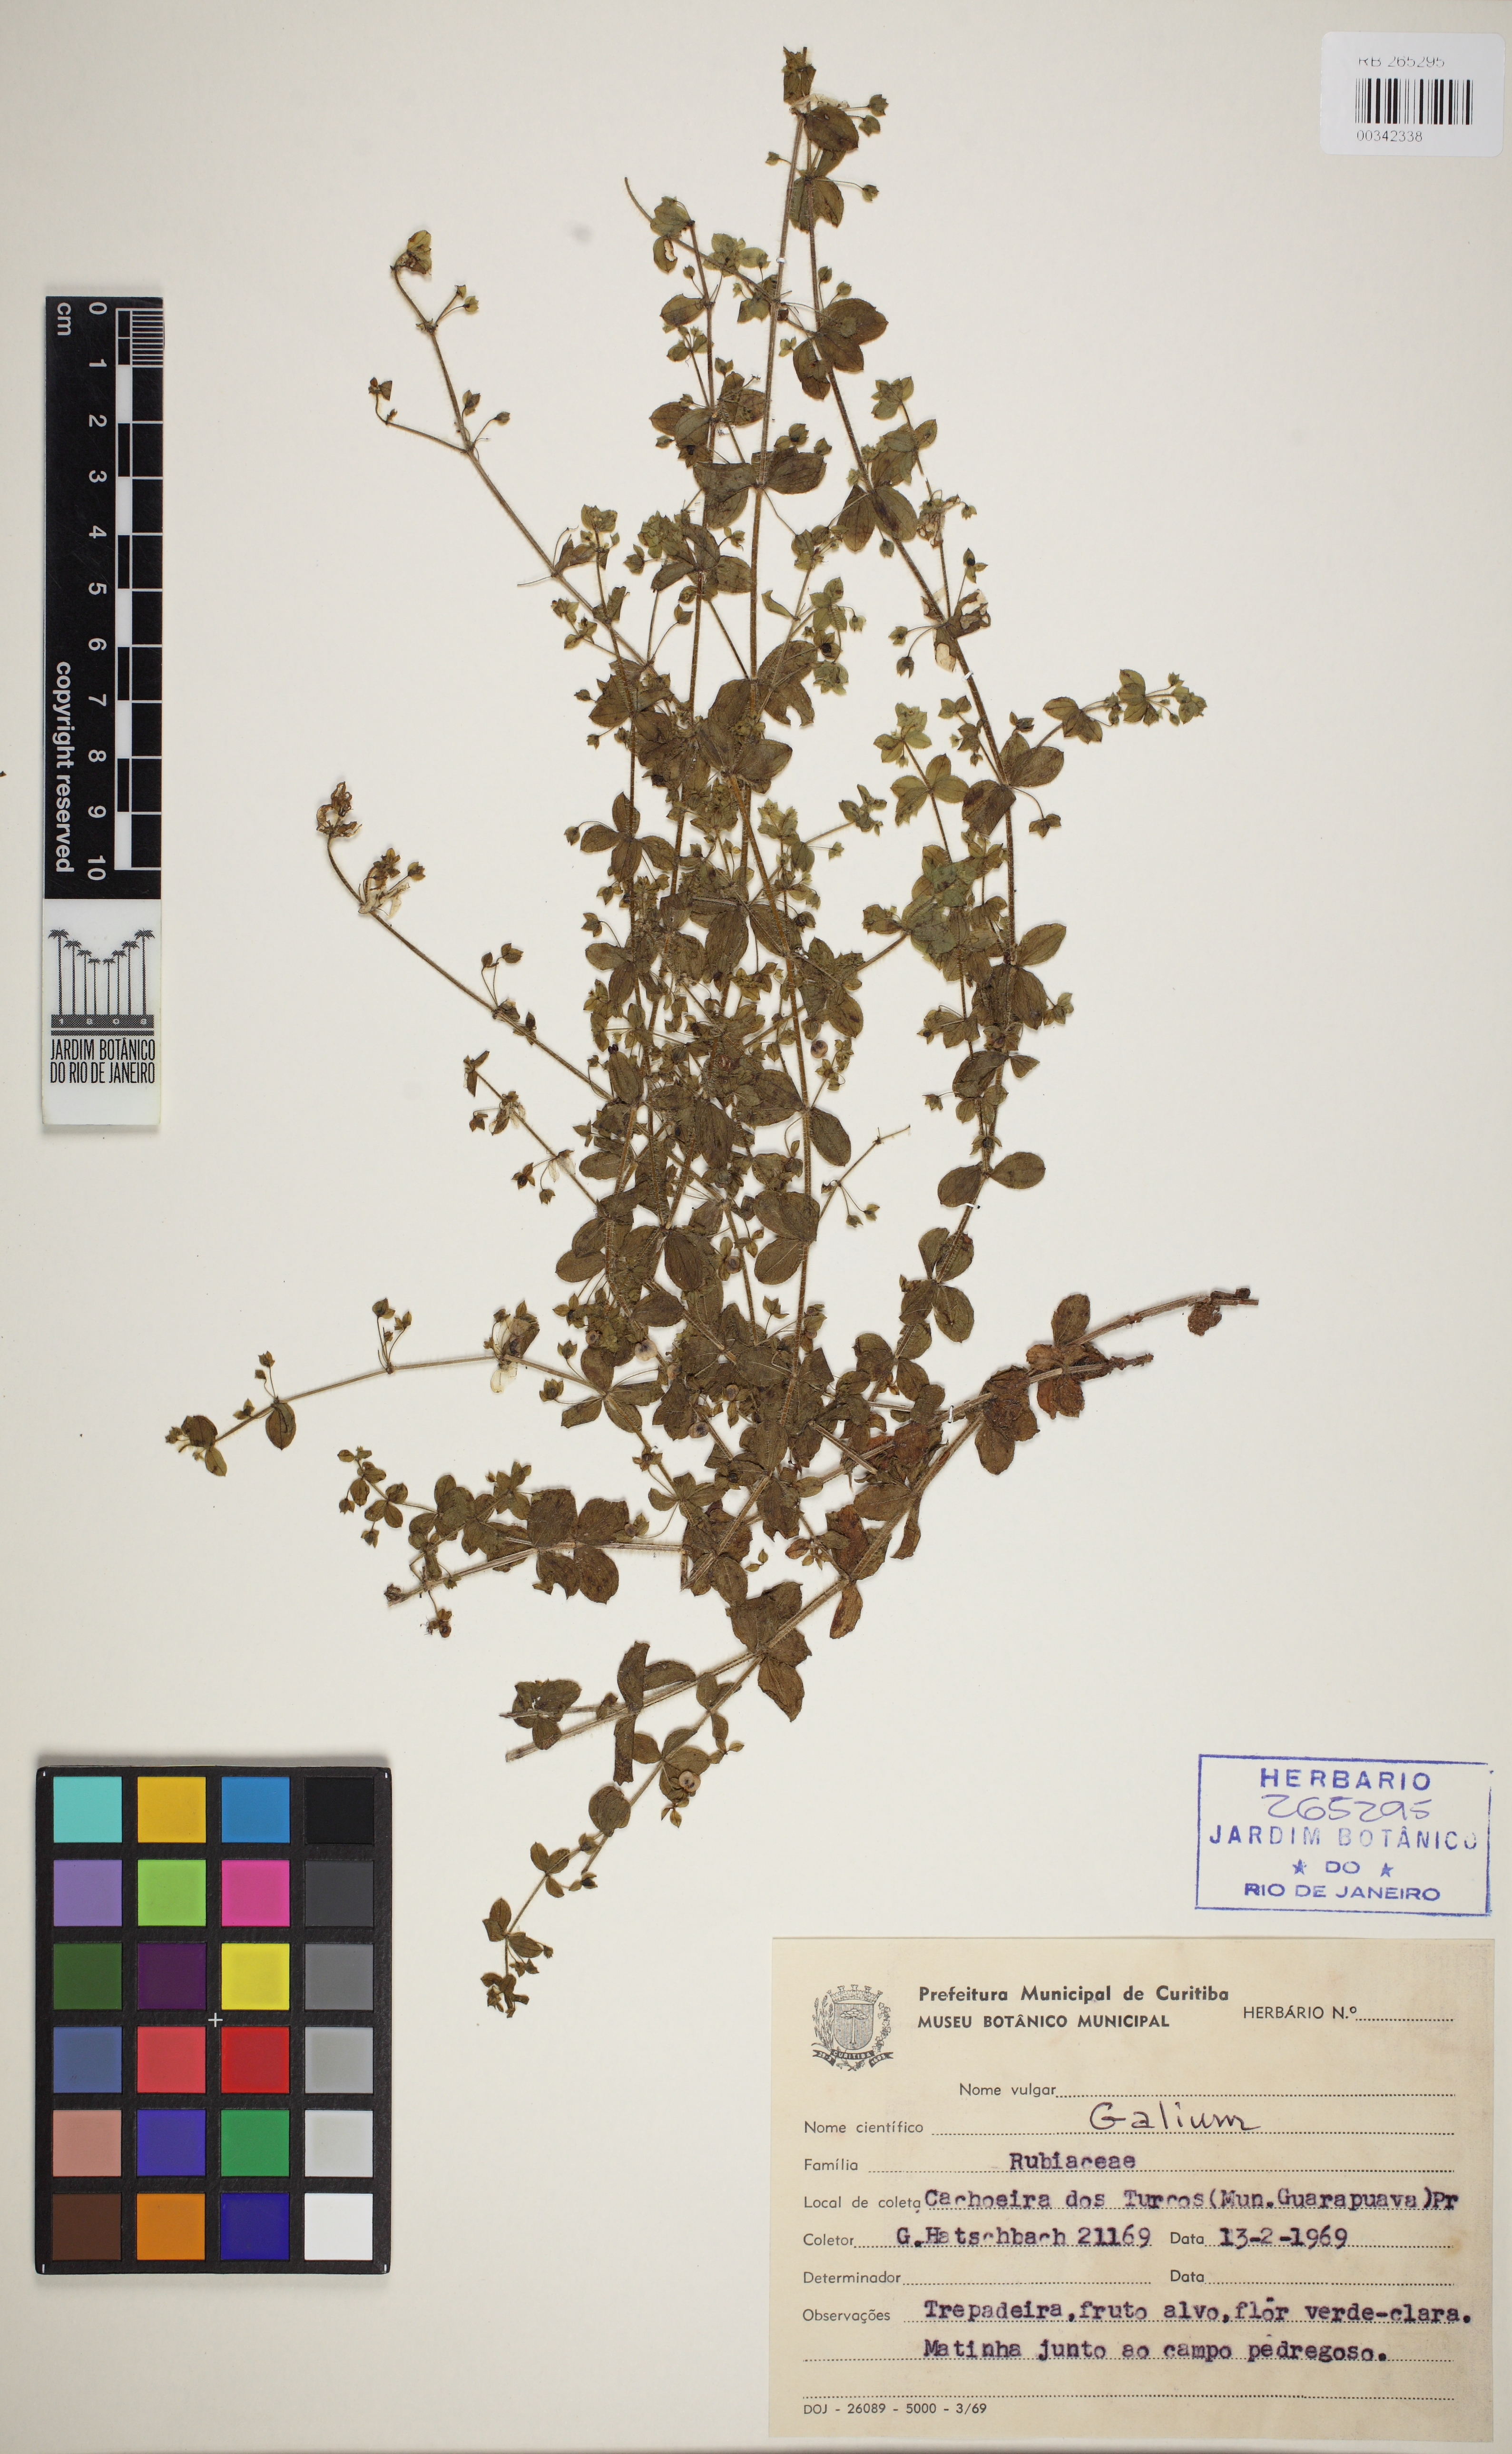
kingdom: Plantae
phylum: Tracheophyta
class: Magnoliopsida
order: Gentianales
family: Rubiaceae
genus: Galium
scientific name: Galium noxium
